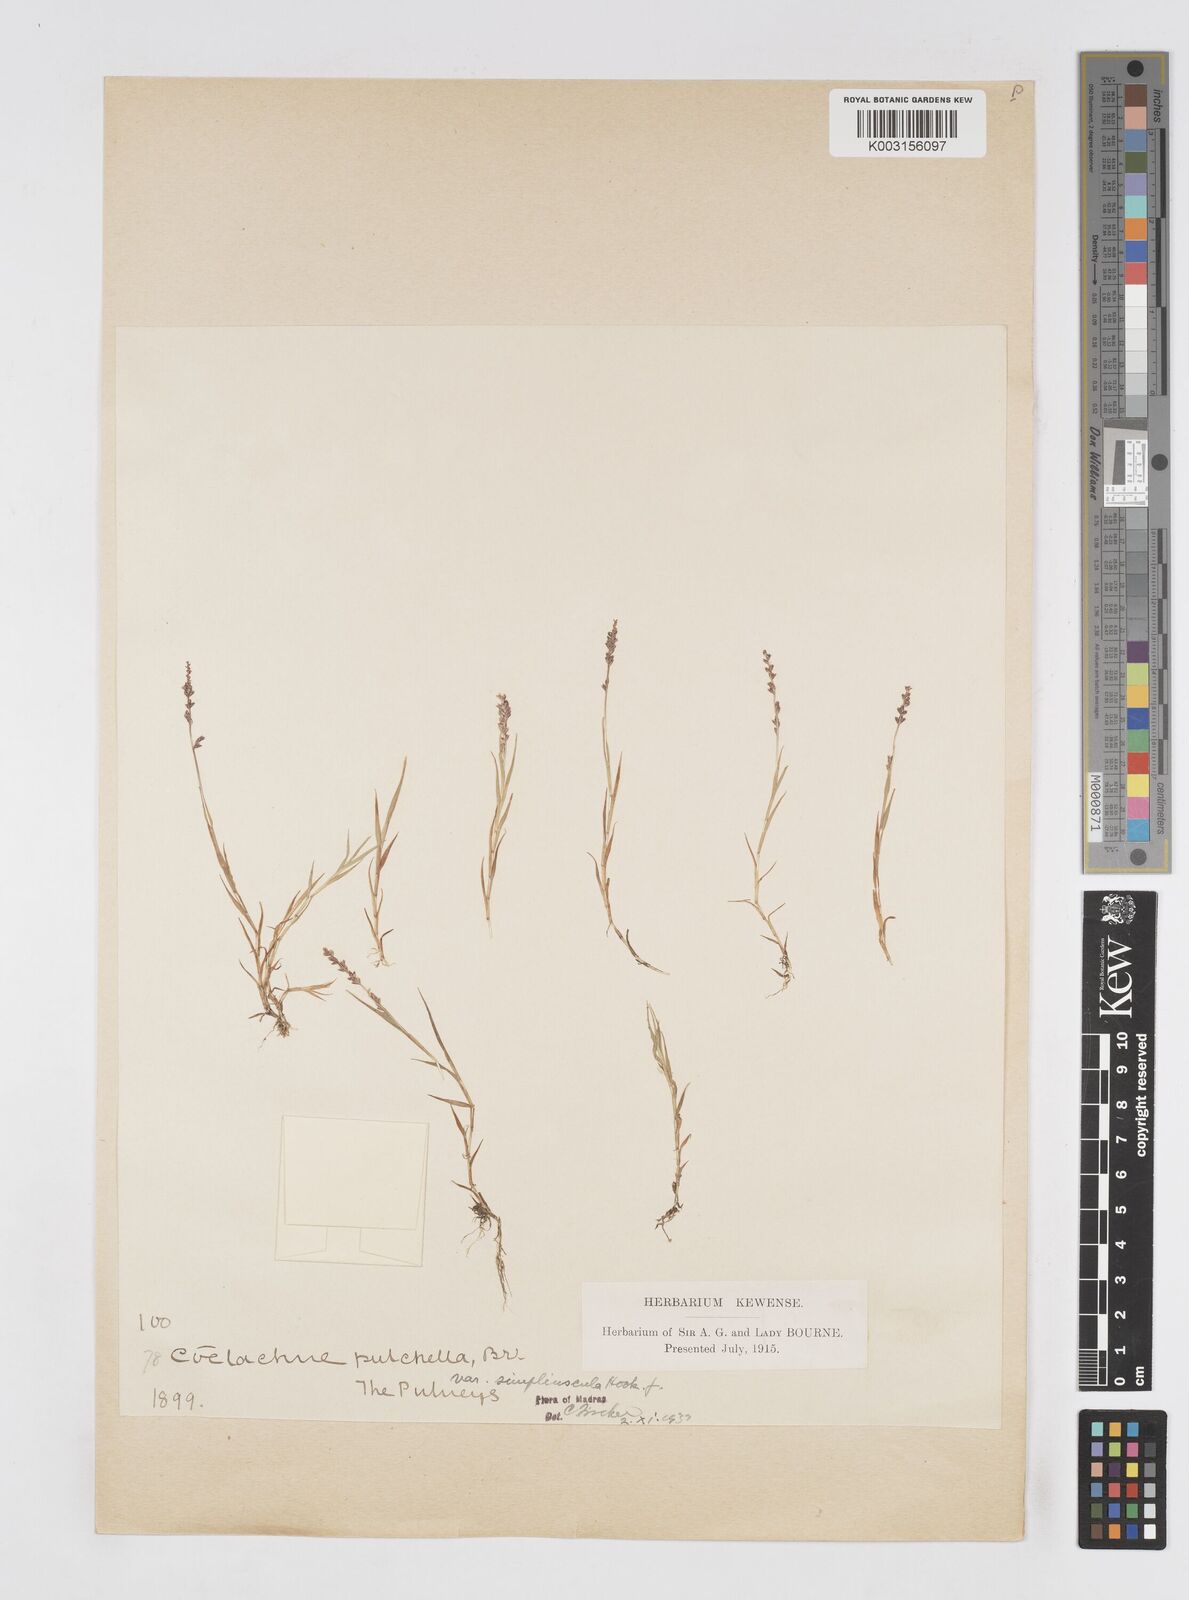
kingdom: Plantae
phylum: Tracheophyta
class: Liliopsida
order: Poales
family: Poaceae
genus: Coelachne
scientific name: Coelachne simpliciuscula
